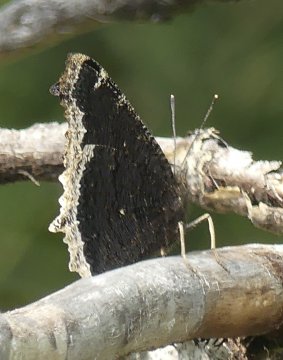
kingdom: Animalia
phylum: Arthropoda
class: Insecta
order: Lepidoptera
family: Nymphalidae
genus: Nymphalis
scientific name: Nymphalis antiopa
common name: Mourning Cloak
